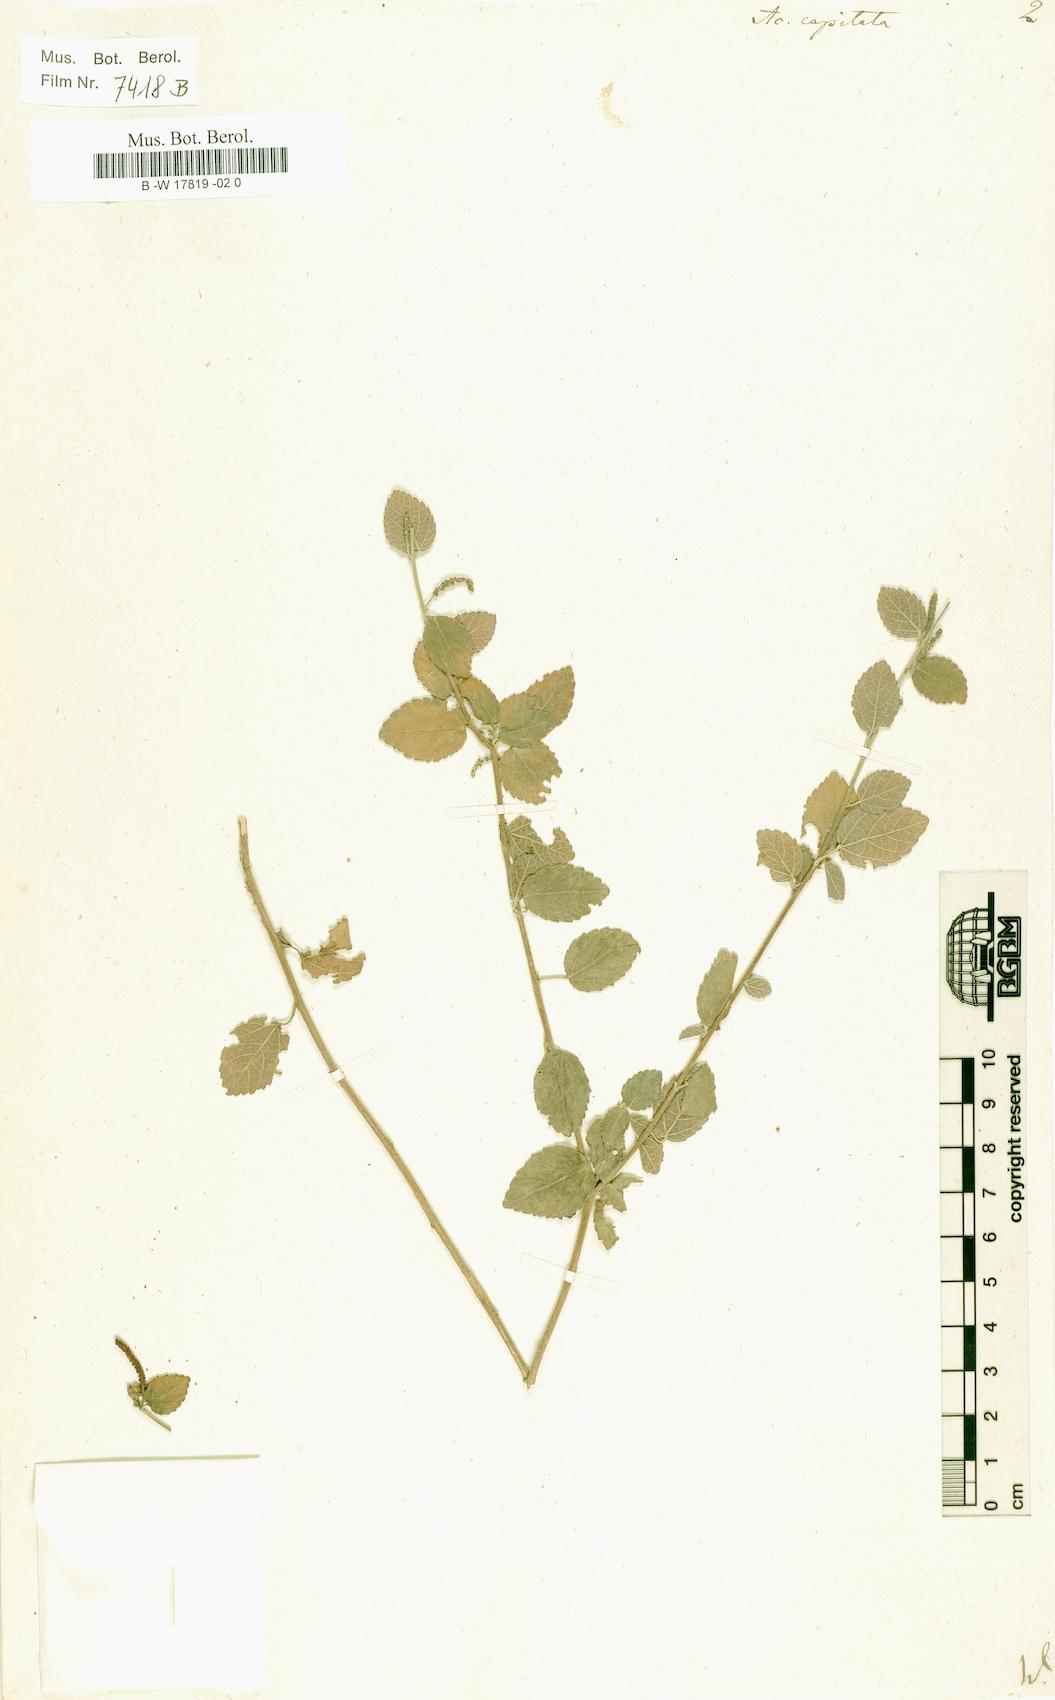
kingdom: Plantae
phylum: Tracheophyta
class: Magnoliopsida
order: Malpighiales
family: Euphorbiaceae
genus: Acalypha
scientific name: Acalypha capitata
